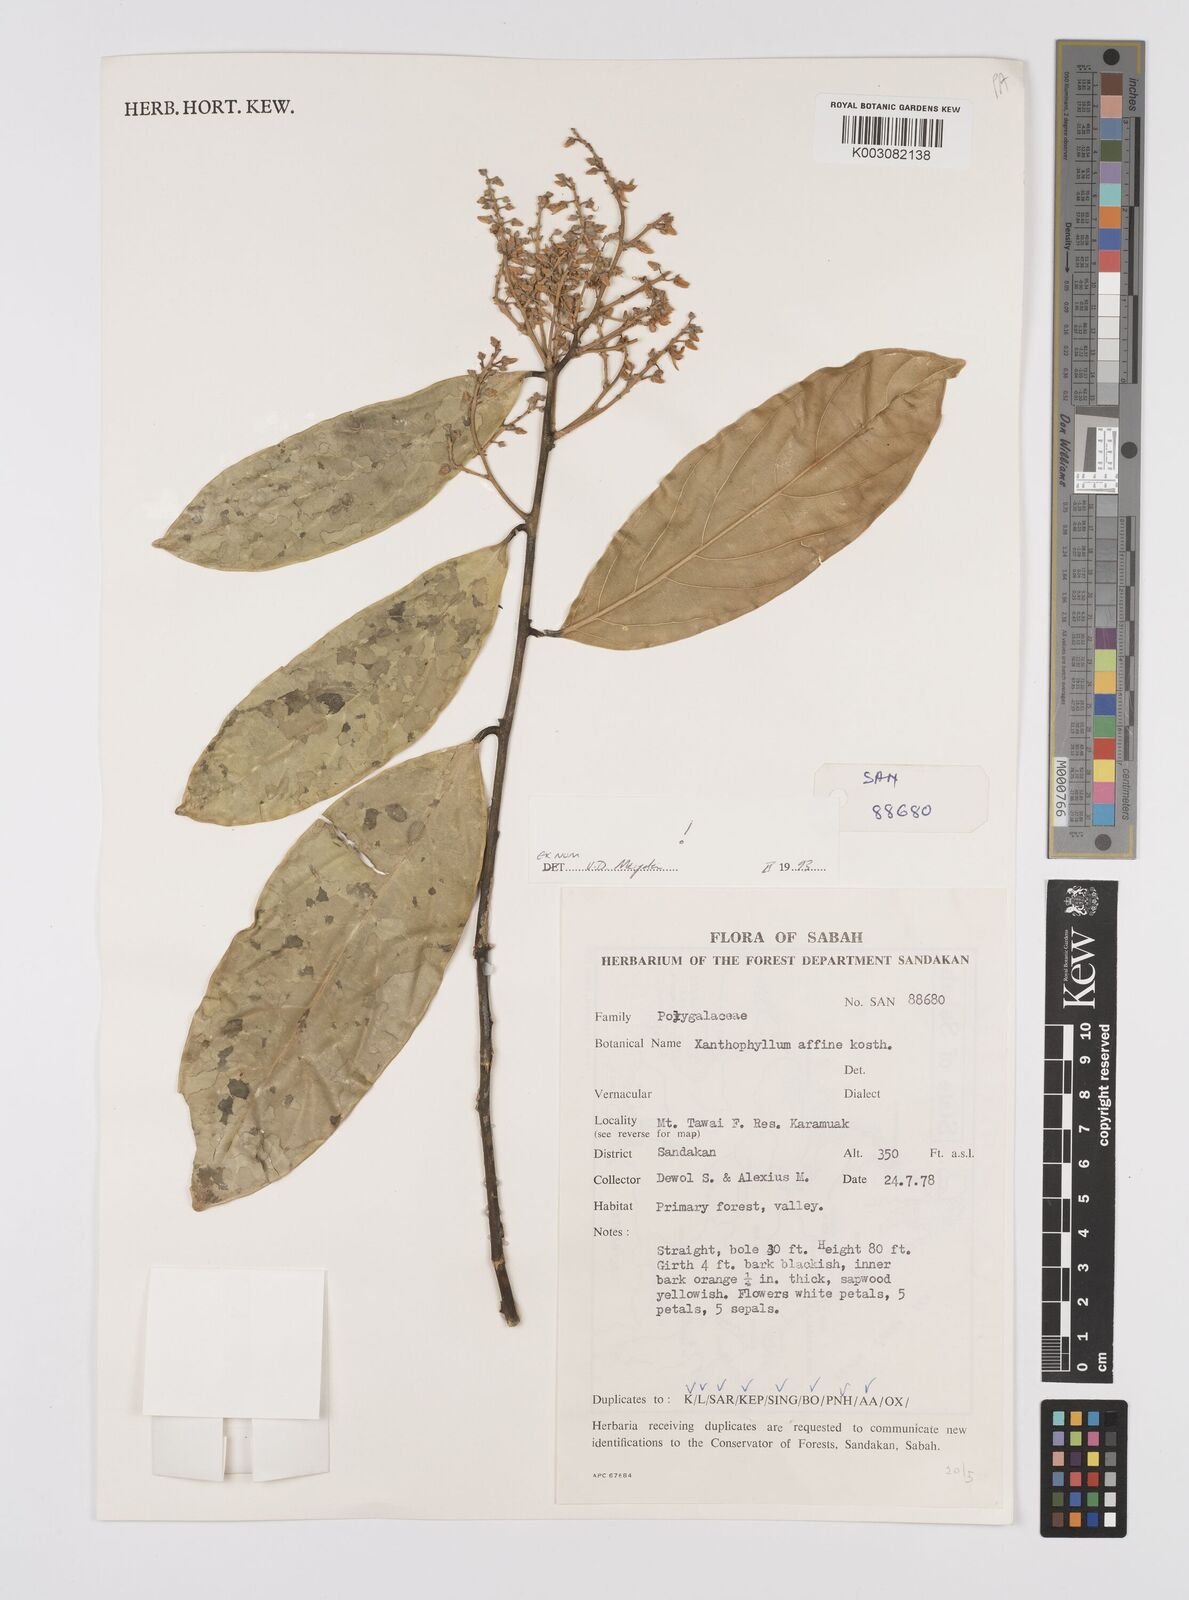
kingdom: Plantae
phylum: Tracheophyta
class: Magnoliopsida
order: Fabales
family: Polygalaceae
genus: Xanthophyllum
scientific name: Xanthophyllum flavescens
